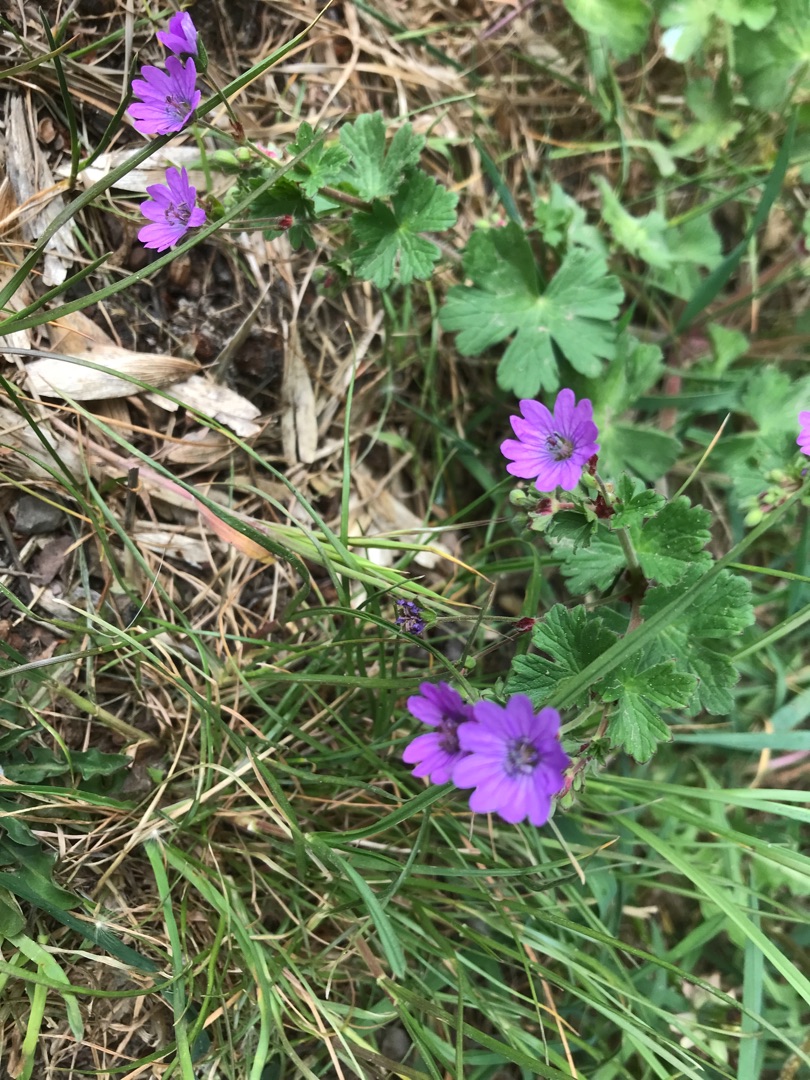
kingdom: Plantae
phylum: Tracheophyta
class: Magnoliopsida
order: Geraniales
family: Geraniaceae
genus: Geranium
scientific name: Geranium pyrenaicum
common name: Pyrenæisk storkenæb
